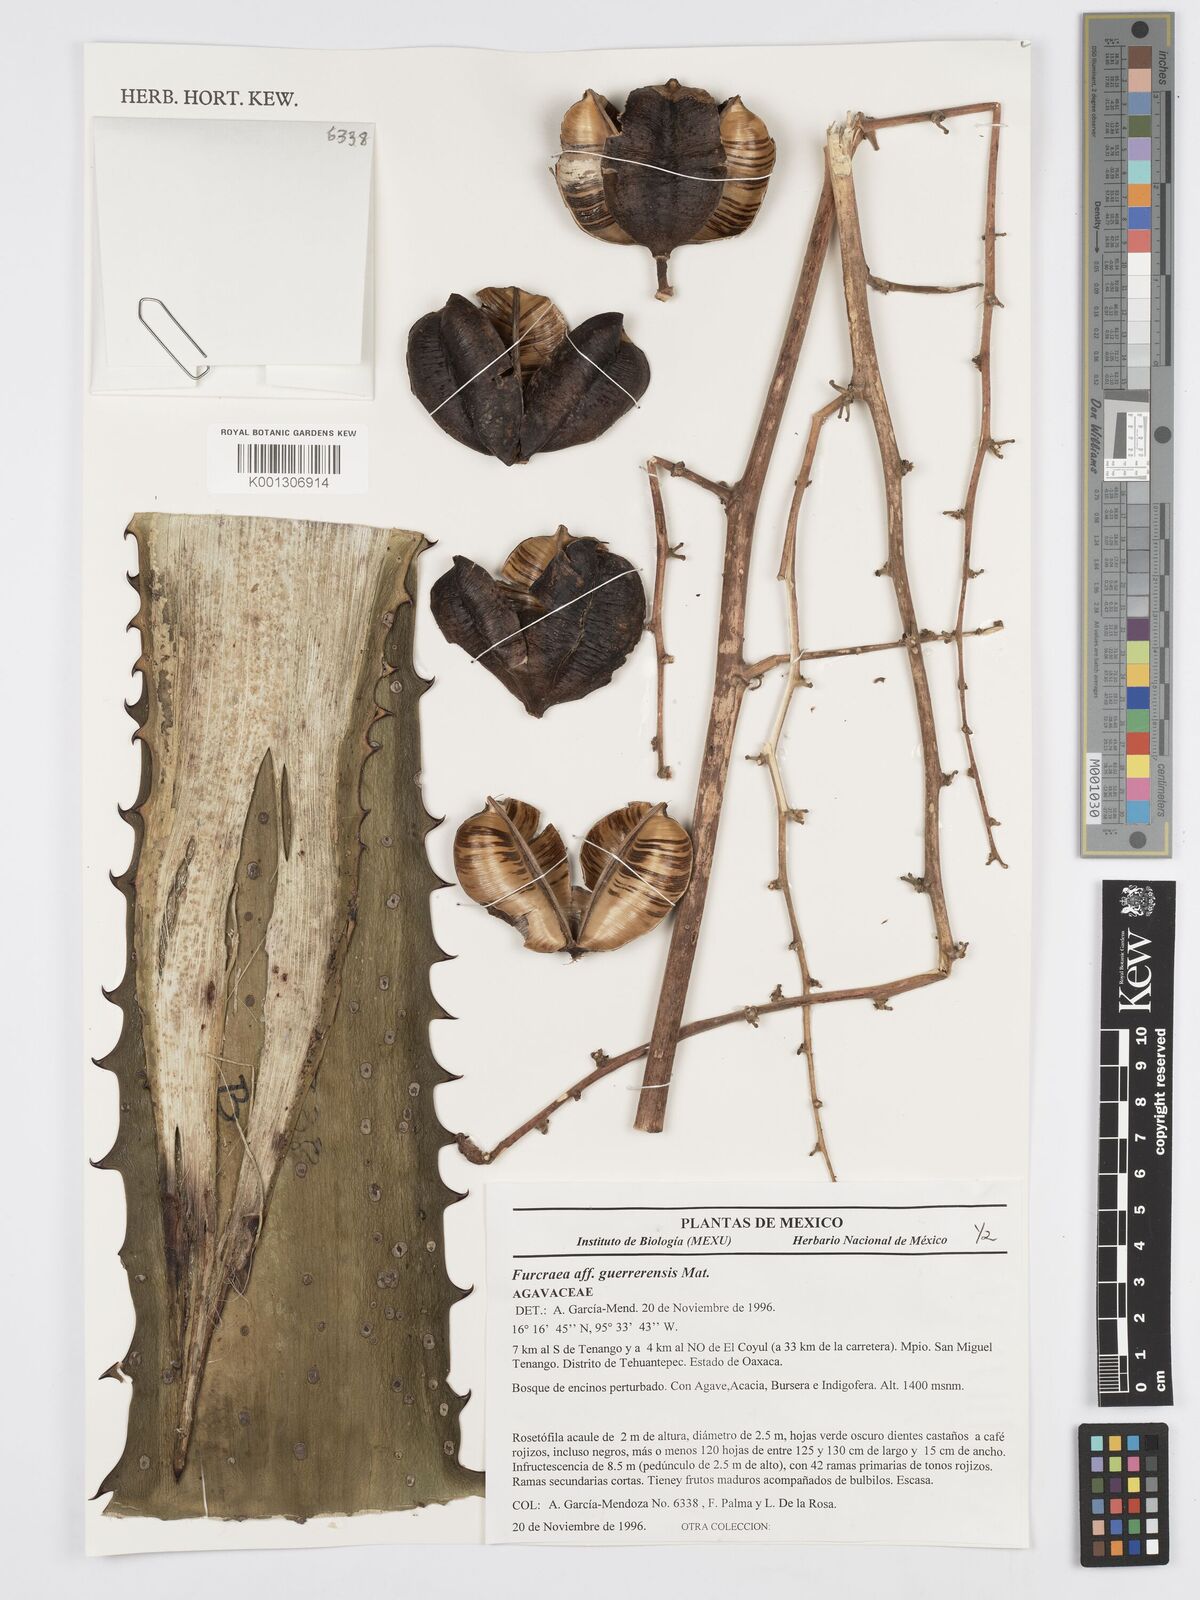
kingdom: Plantae
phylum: Tracheophyta
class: Liliopsida
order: Asparagales
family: Asparagaceae
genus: Furcraea
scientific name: Furcraea guerrerensis
